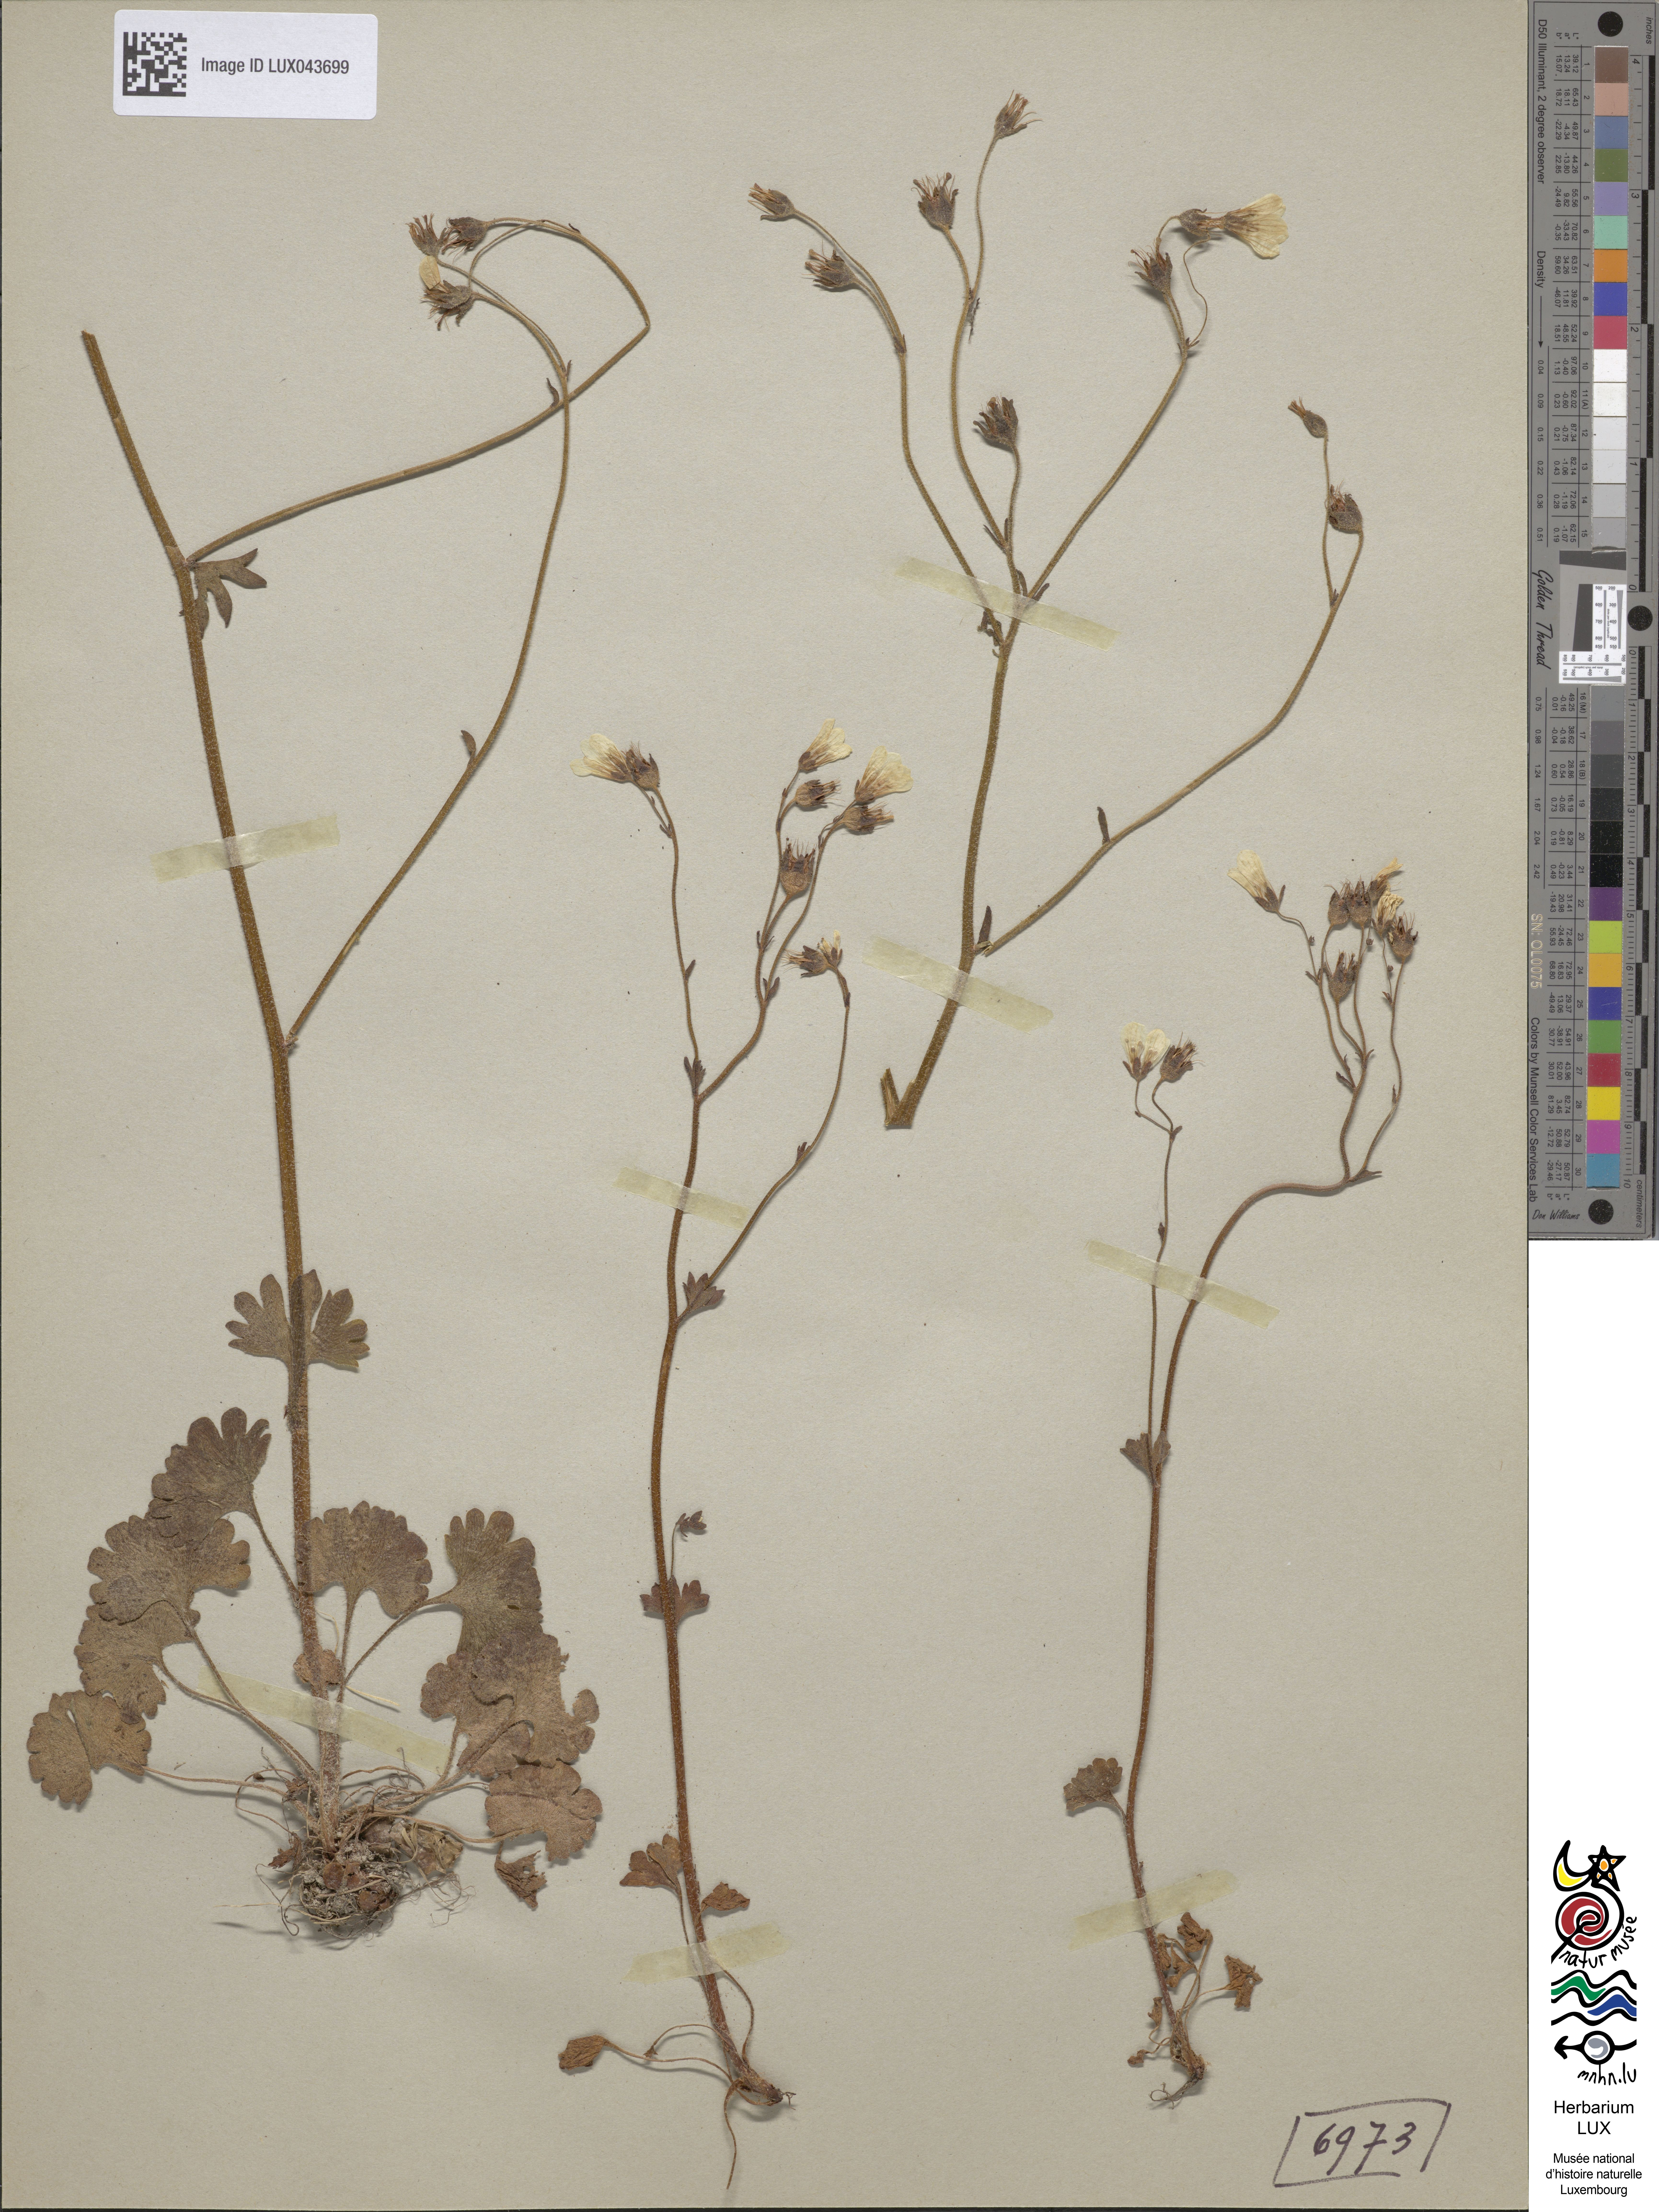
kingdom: Plantae
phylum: Tracheophyta
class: Magnoliopsida
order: Saxifragales
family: Saxifragaceae
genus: Saxifraga
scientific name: Saxifraga granulata
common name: Meadow saxifrage
